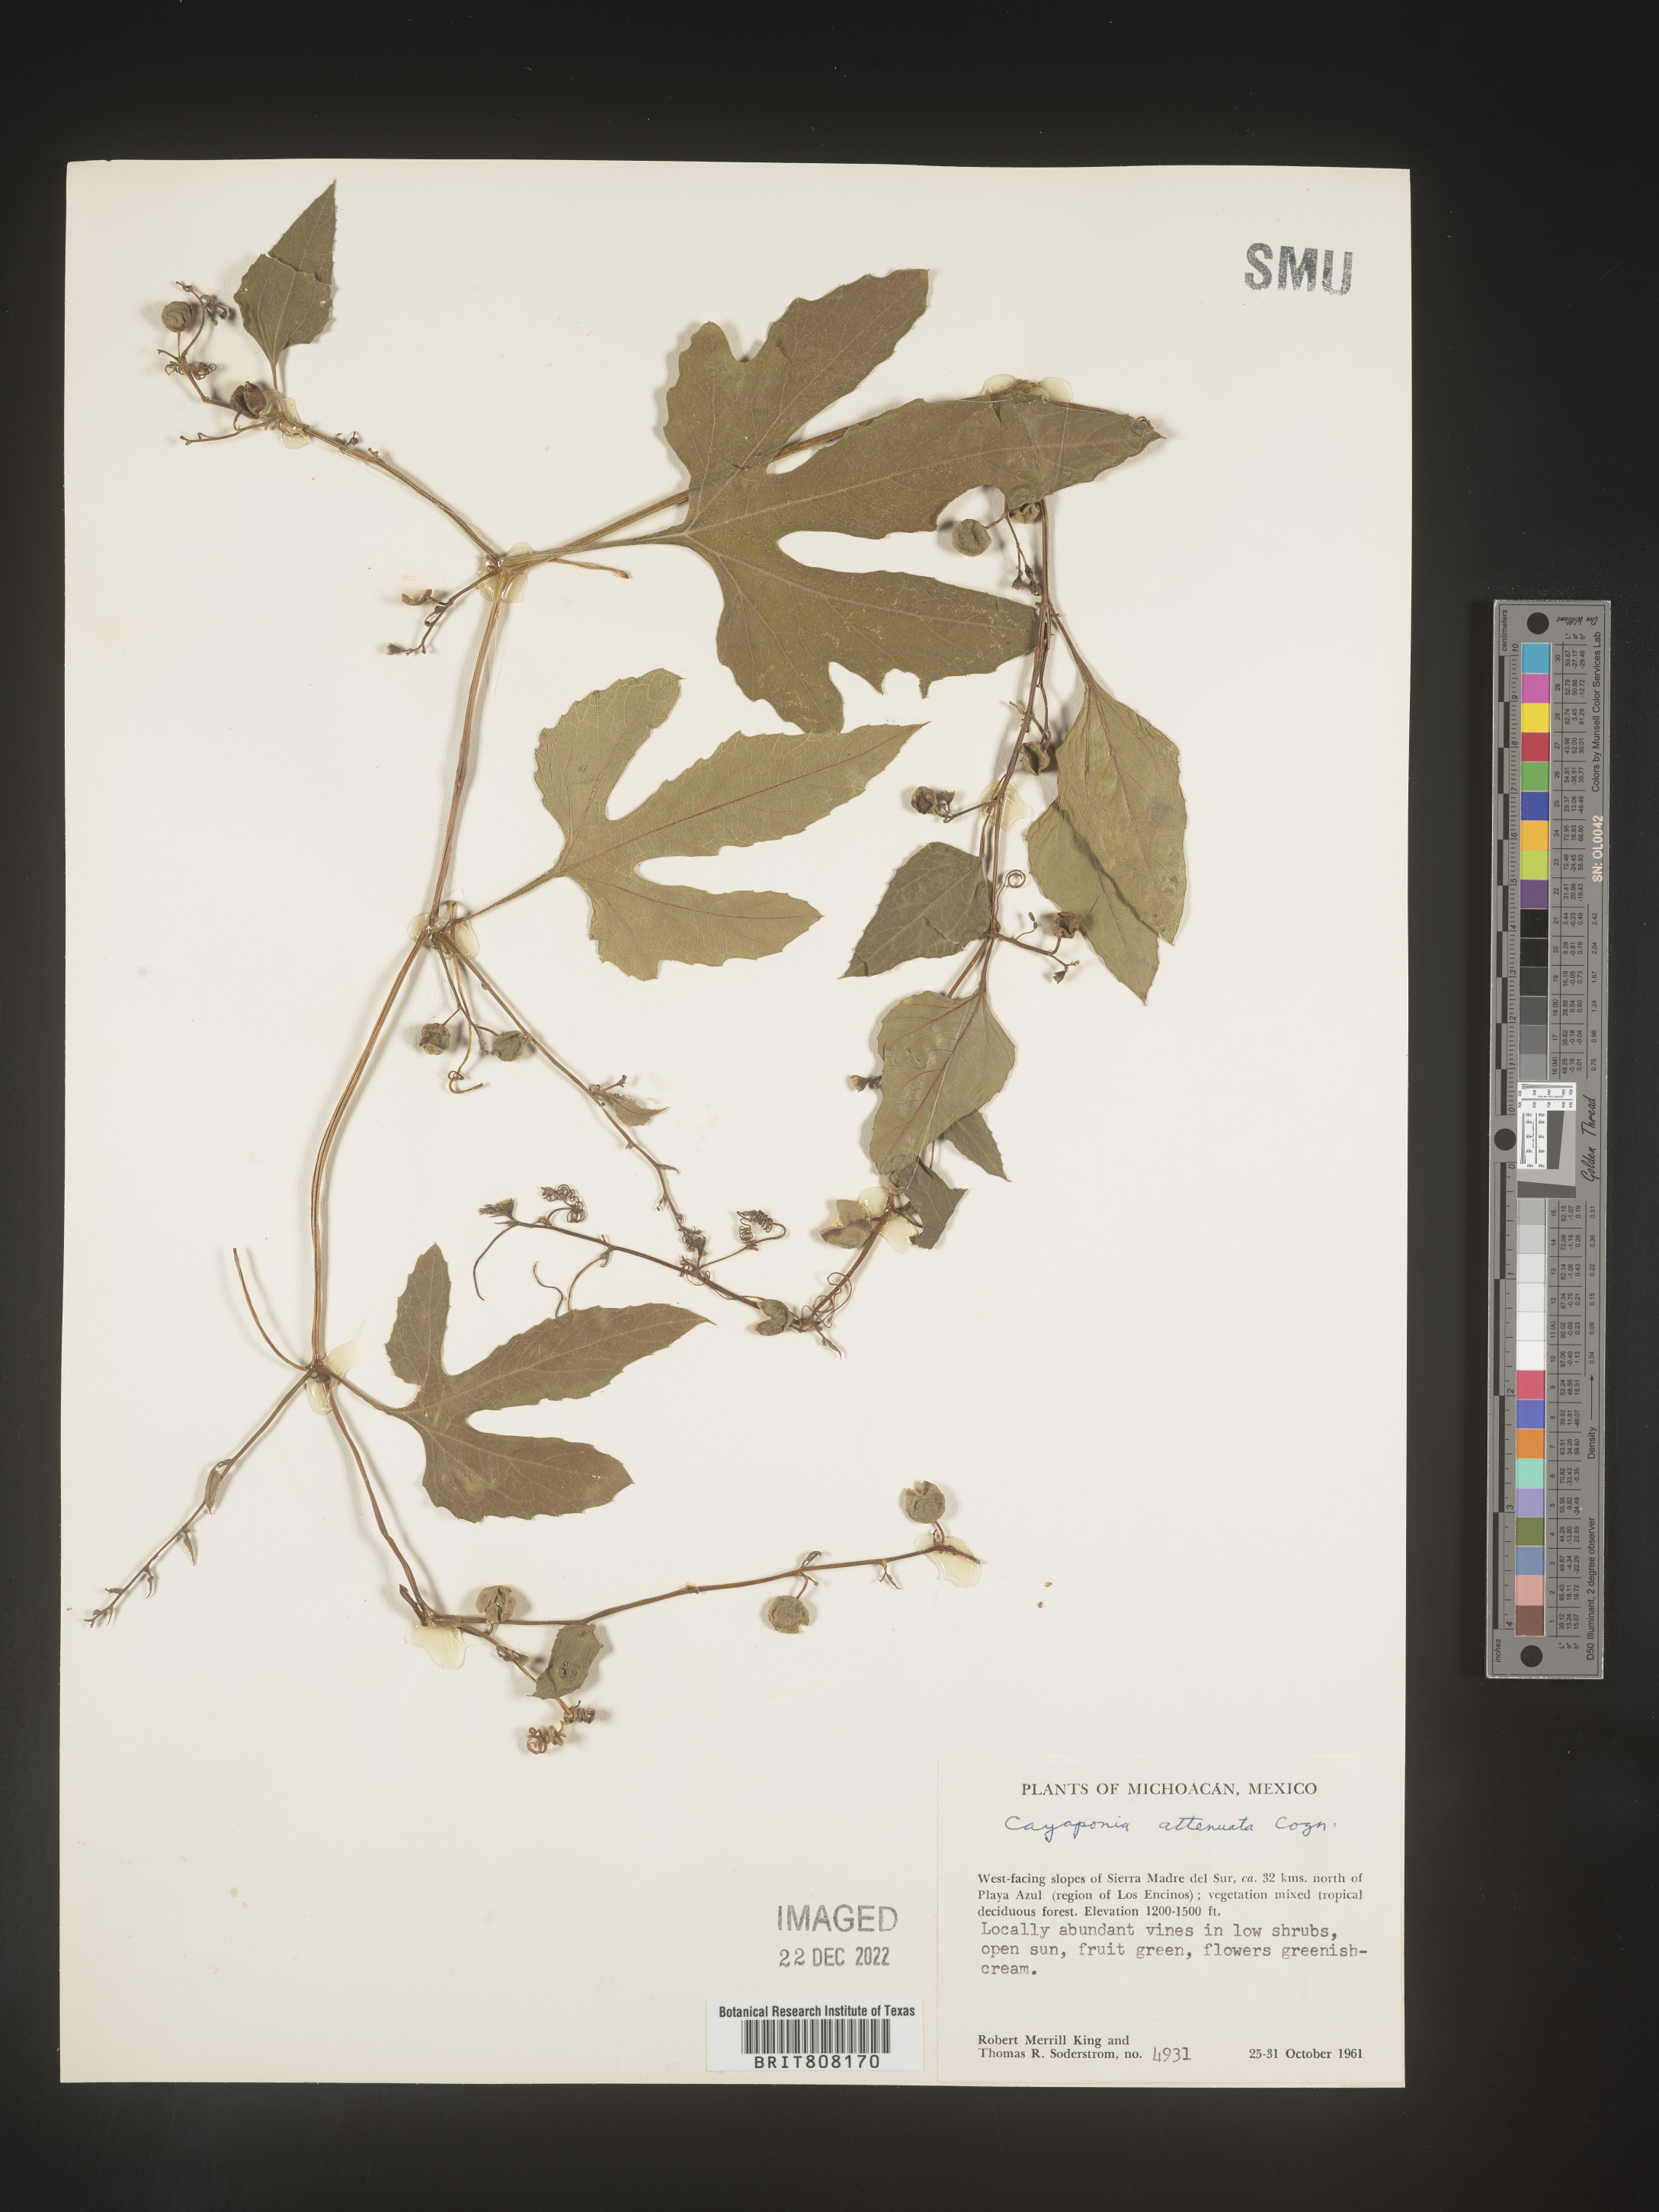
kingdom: Plantae
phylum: Tracheophyta
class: Magnoliopsida
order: Cucurbitales
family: Cucurbitaceae
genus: Cayaponia
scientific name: Cayaponia
